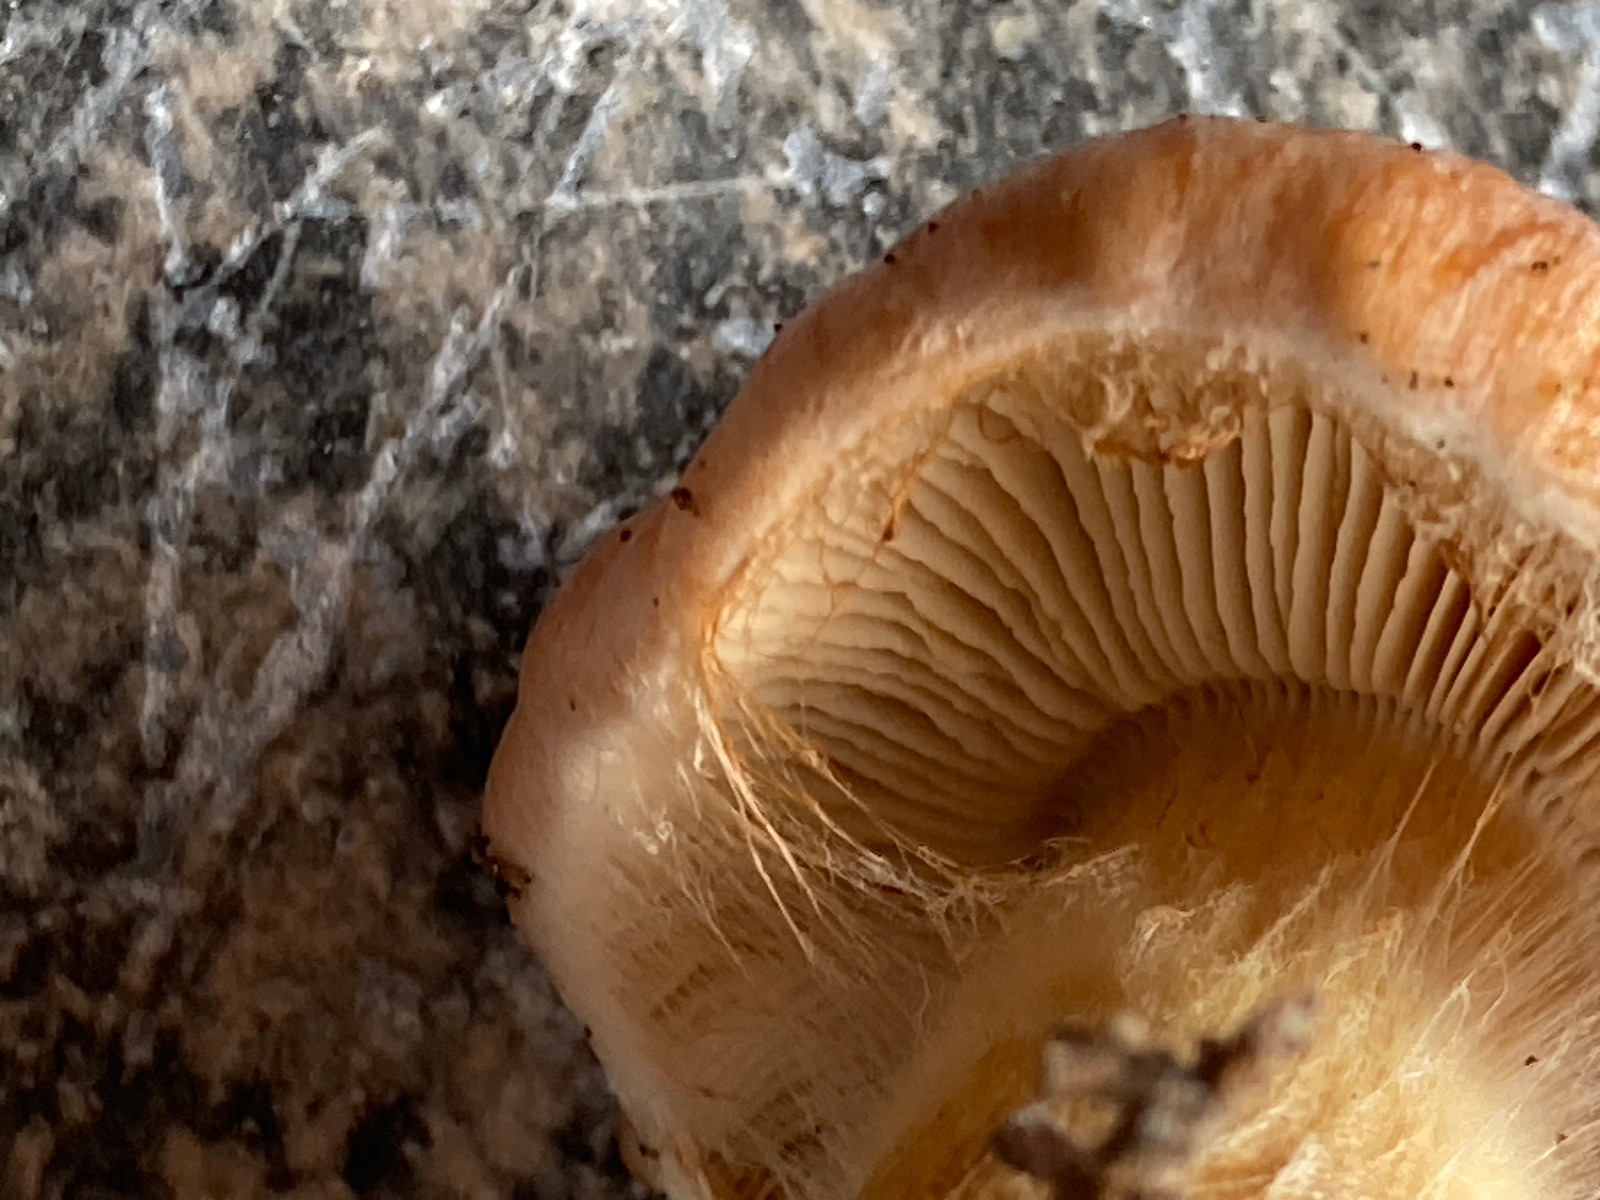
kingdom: Fungi
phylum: Basidiomycota
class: Agaricomycetes
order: Agaricales
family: Cortinariaceae
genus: Thaxterogaster
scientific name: Thaxterogaster rufoallutus
